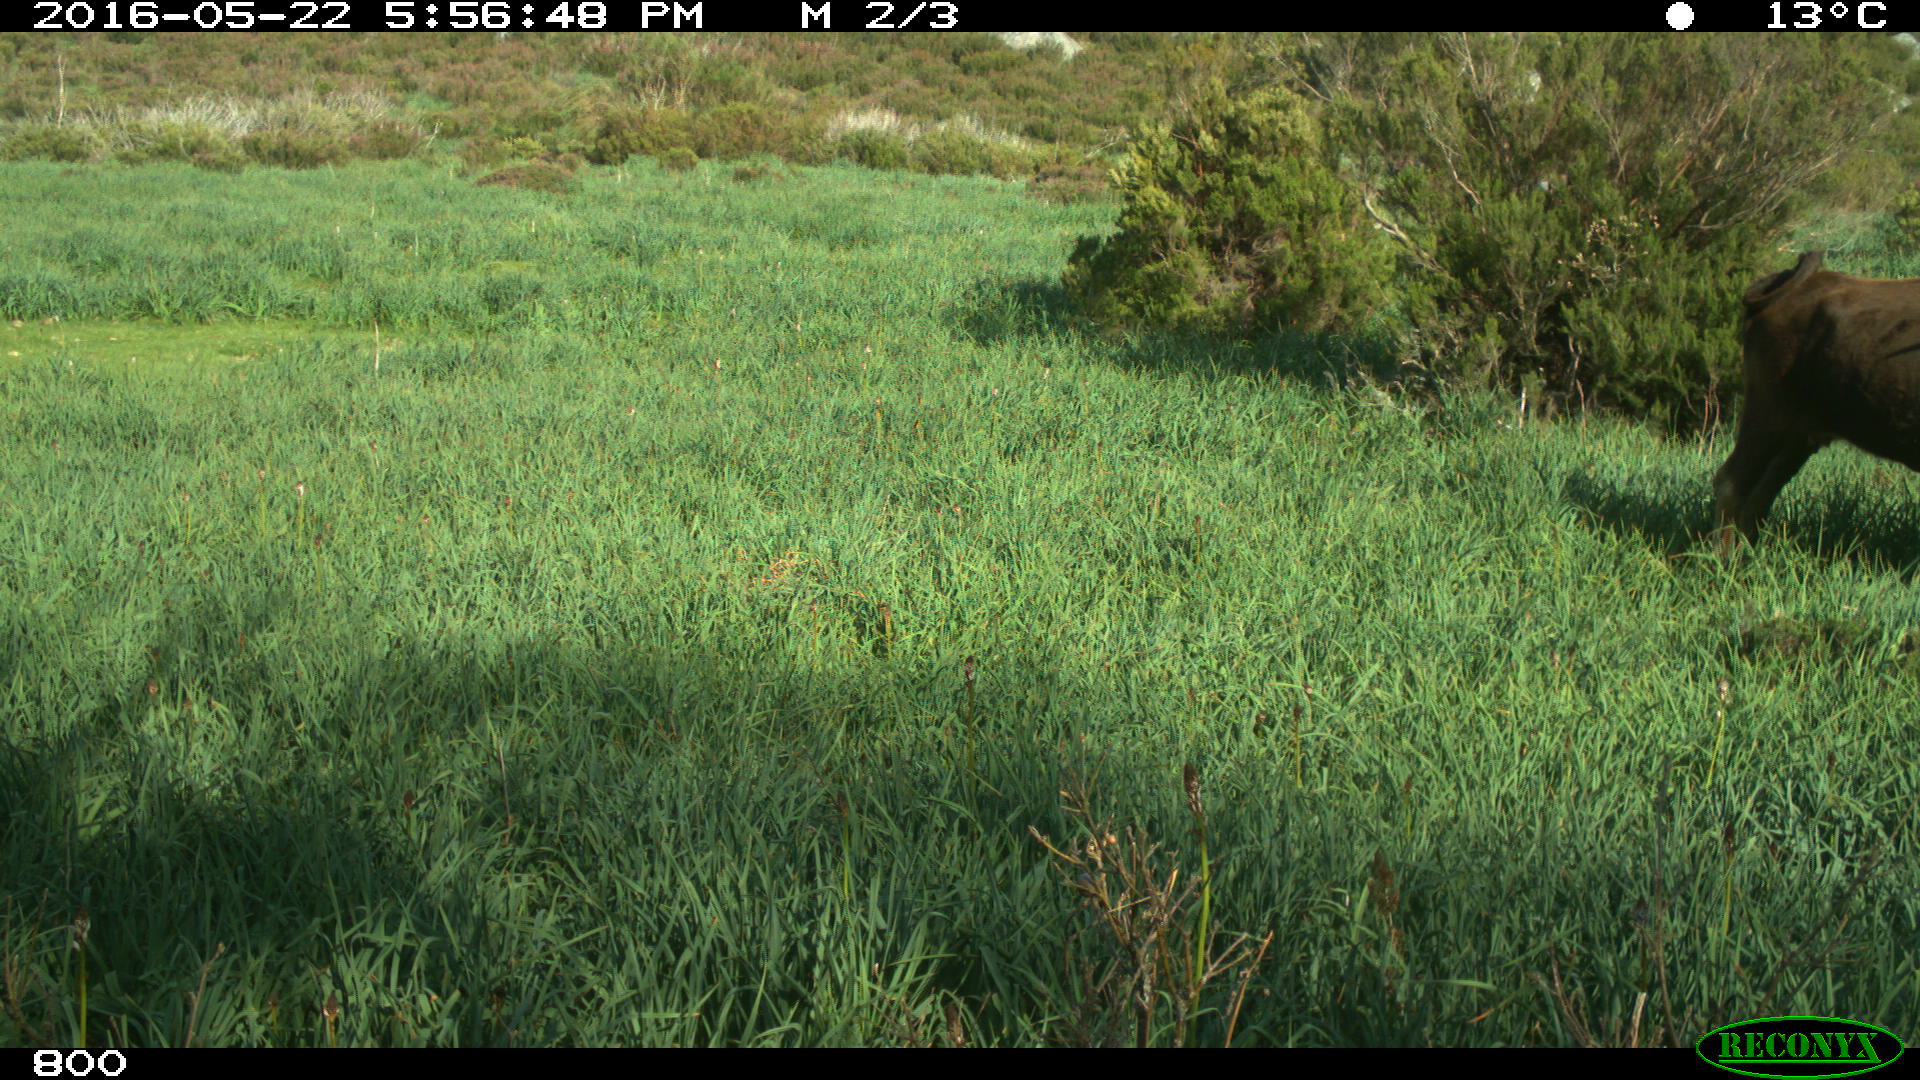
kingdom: Animalia
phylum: Chordata
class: Mammalia
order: Artiodactyla
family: Bovidae
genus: Bos
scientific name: Bos taurus
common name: Domesticated cattle
